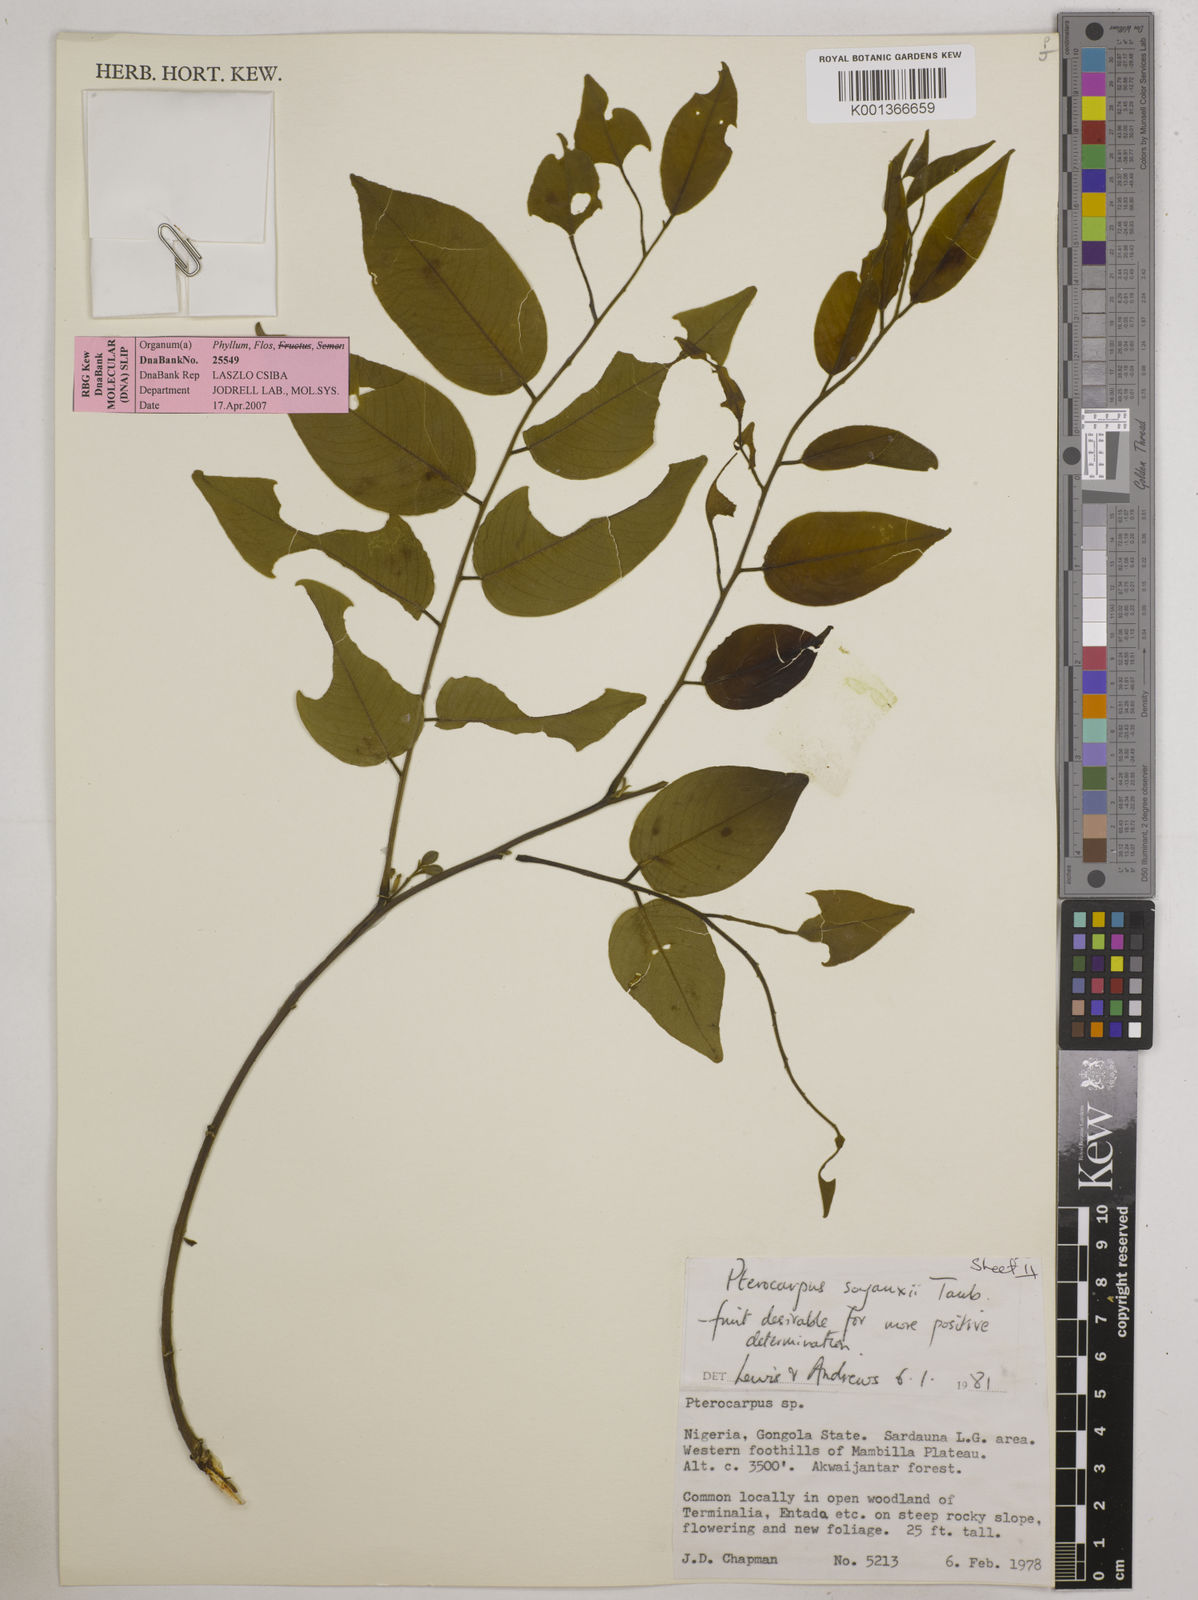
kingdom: Plantae
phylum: Tracheophyta
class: Magnoliopsida
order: Fabales
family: Fabaceae
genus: Pterocarpus
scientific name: Pterocarpus soyauxii
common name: African coralwood
